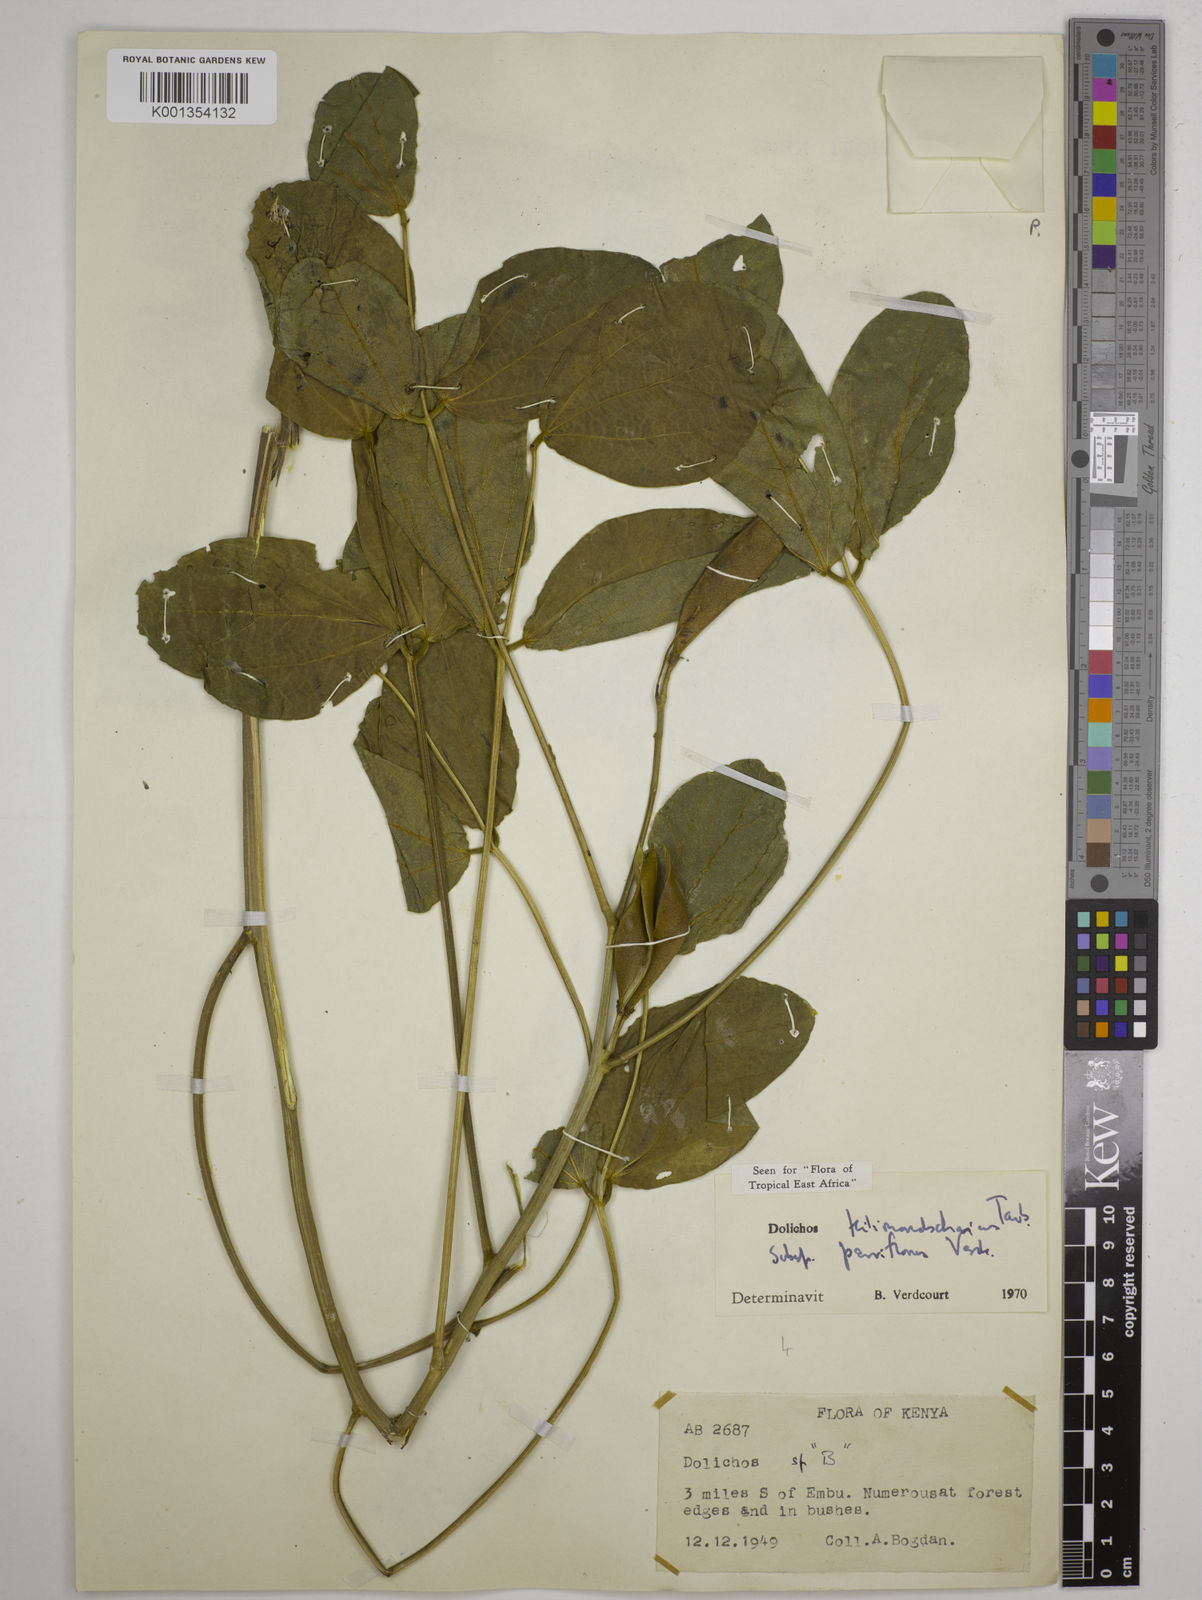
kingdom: Plantae
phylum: Tracheophyta
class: Magnoliopsida
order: Fabales
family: Fabaceae
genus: Dolichos
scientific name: Dolichos
